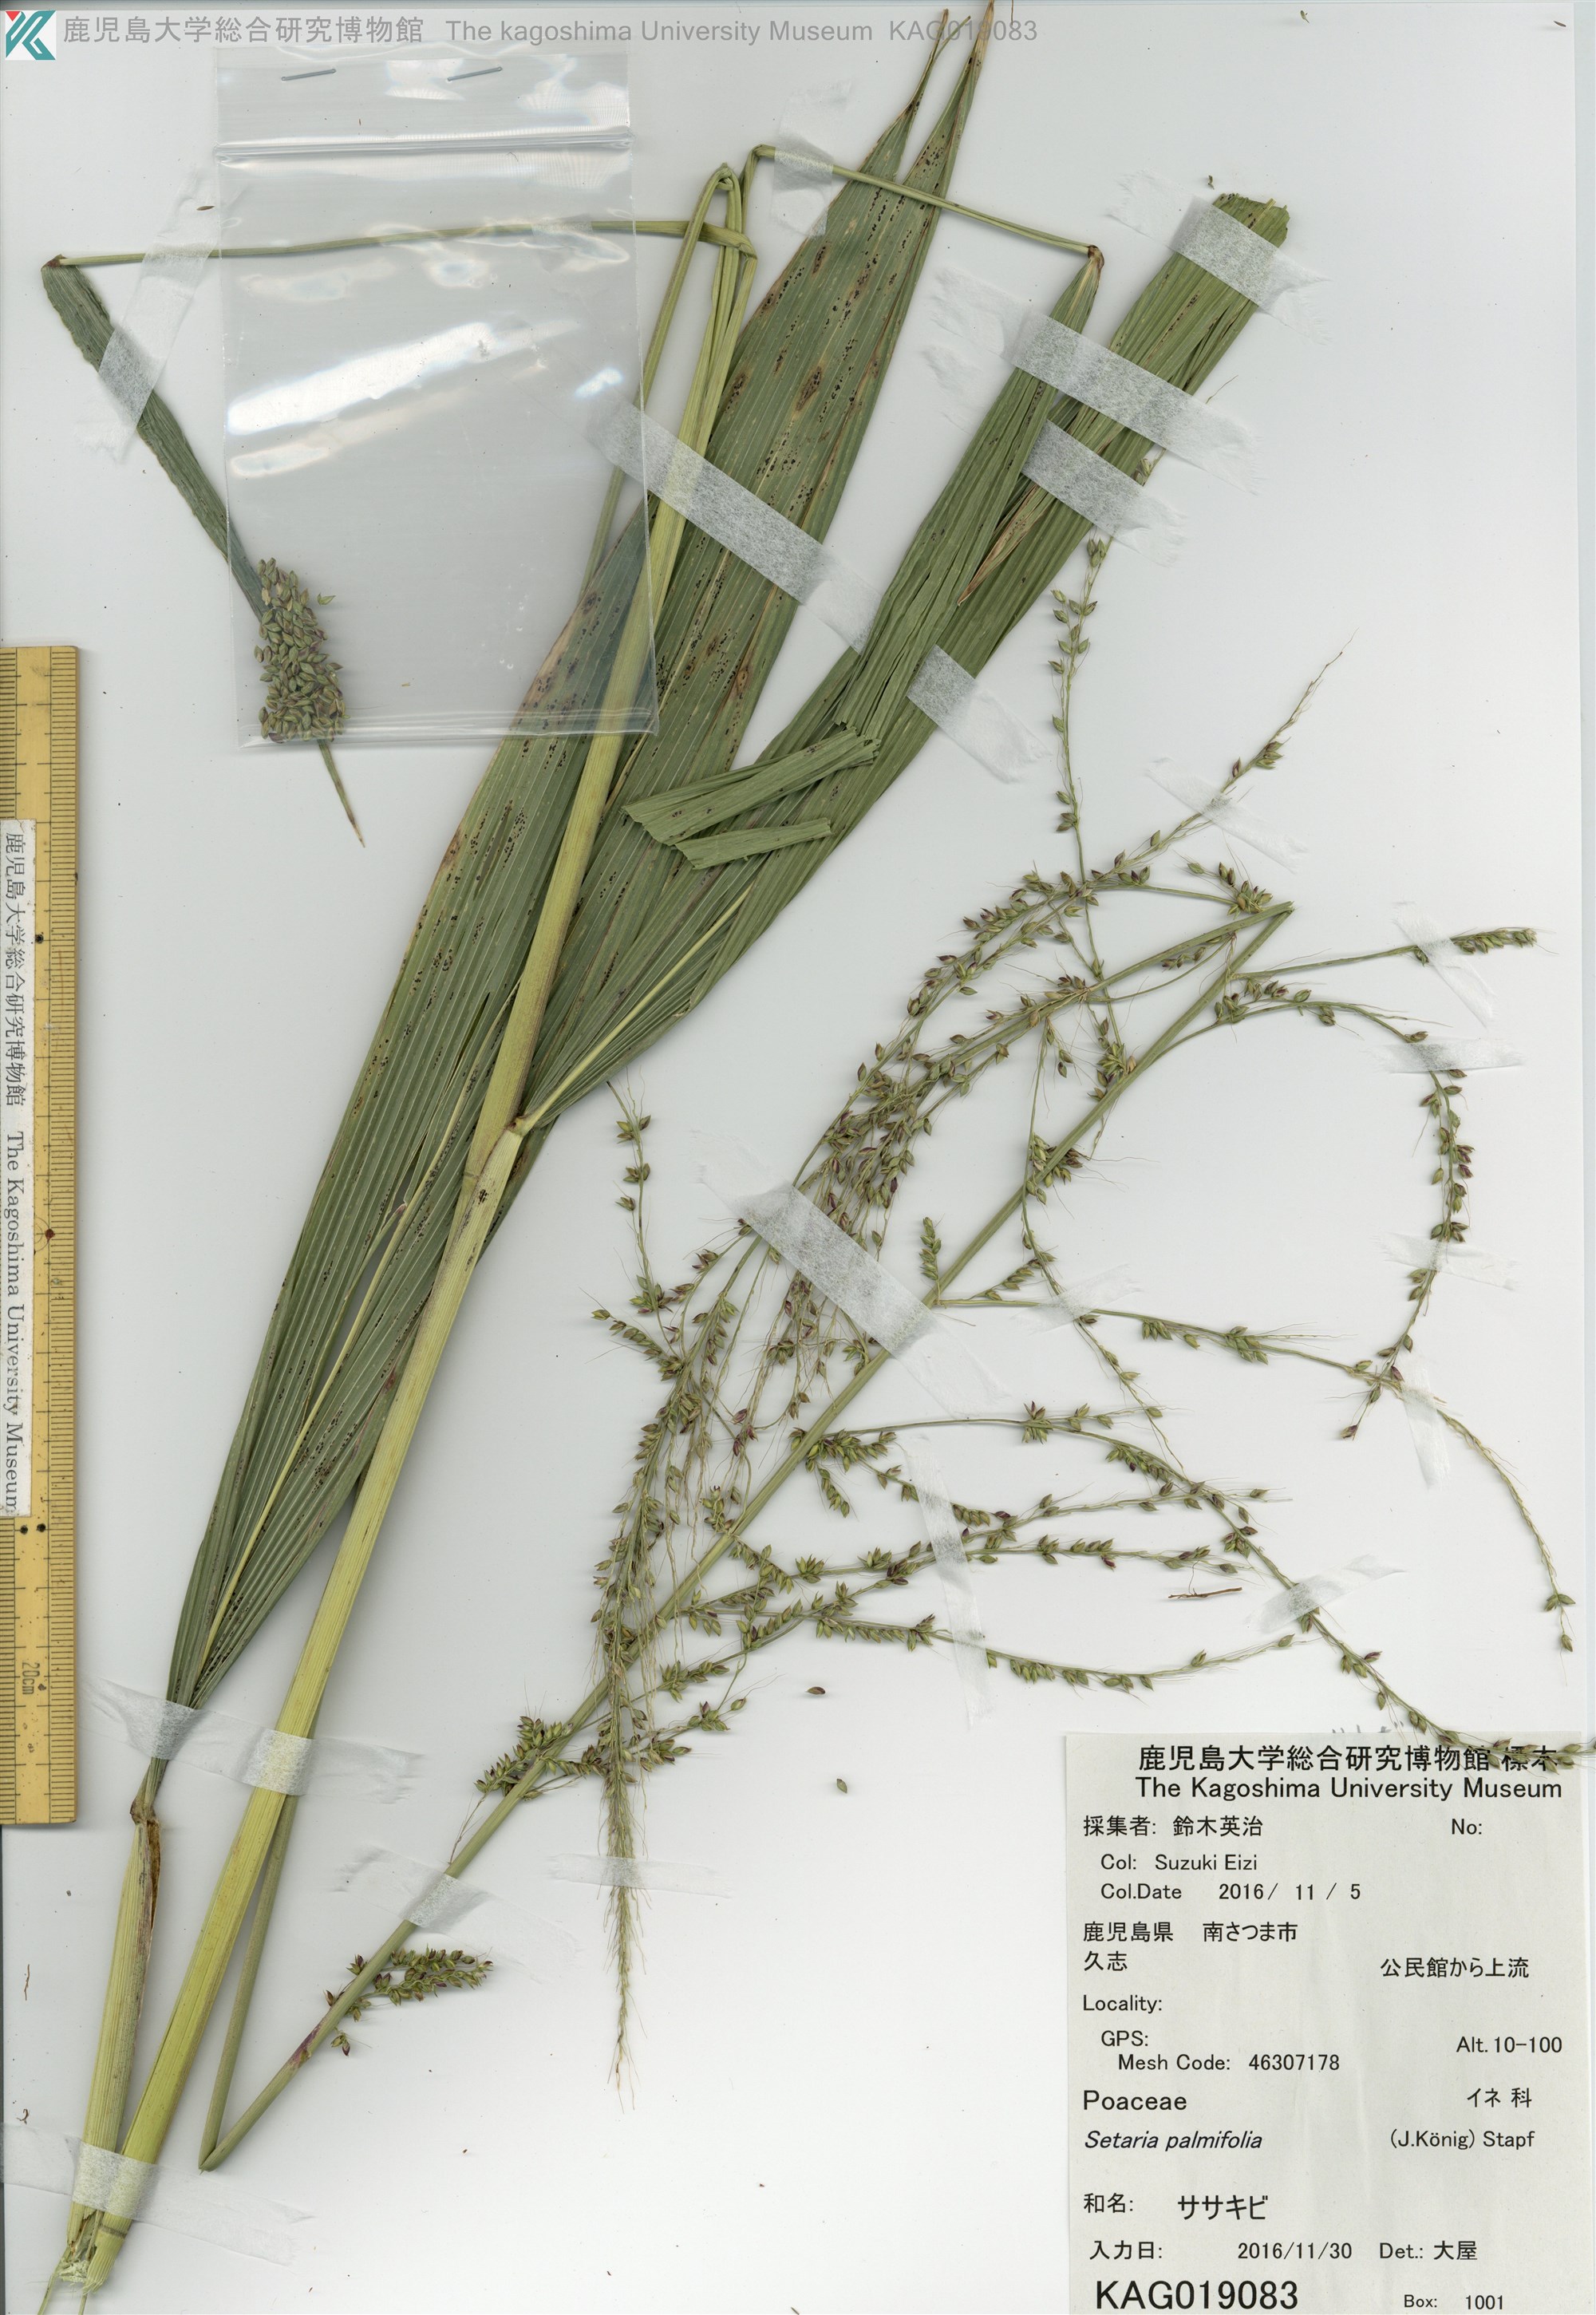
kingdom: Plantae
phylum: Tracheophyta
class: Liliopsida
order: Poales
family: Poaceae
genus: Setaria
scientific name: Setaria palmifolia
